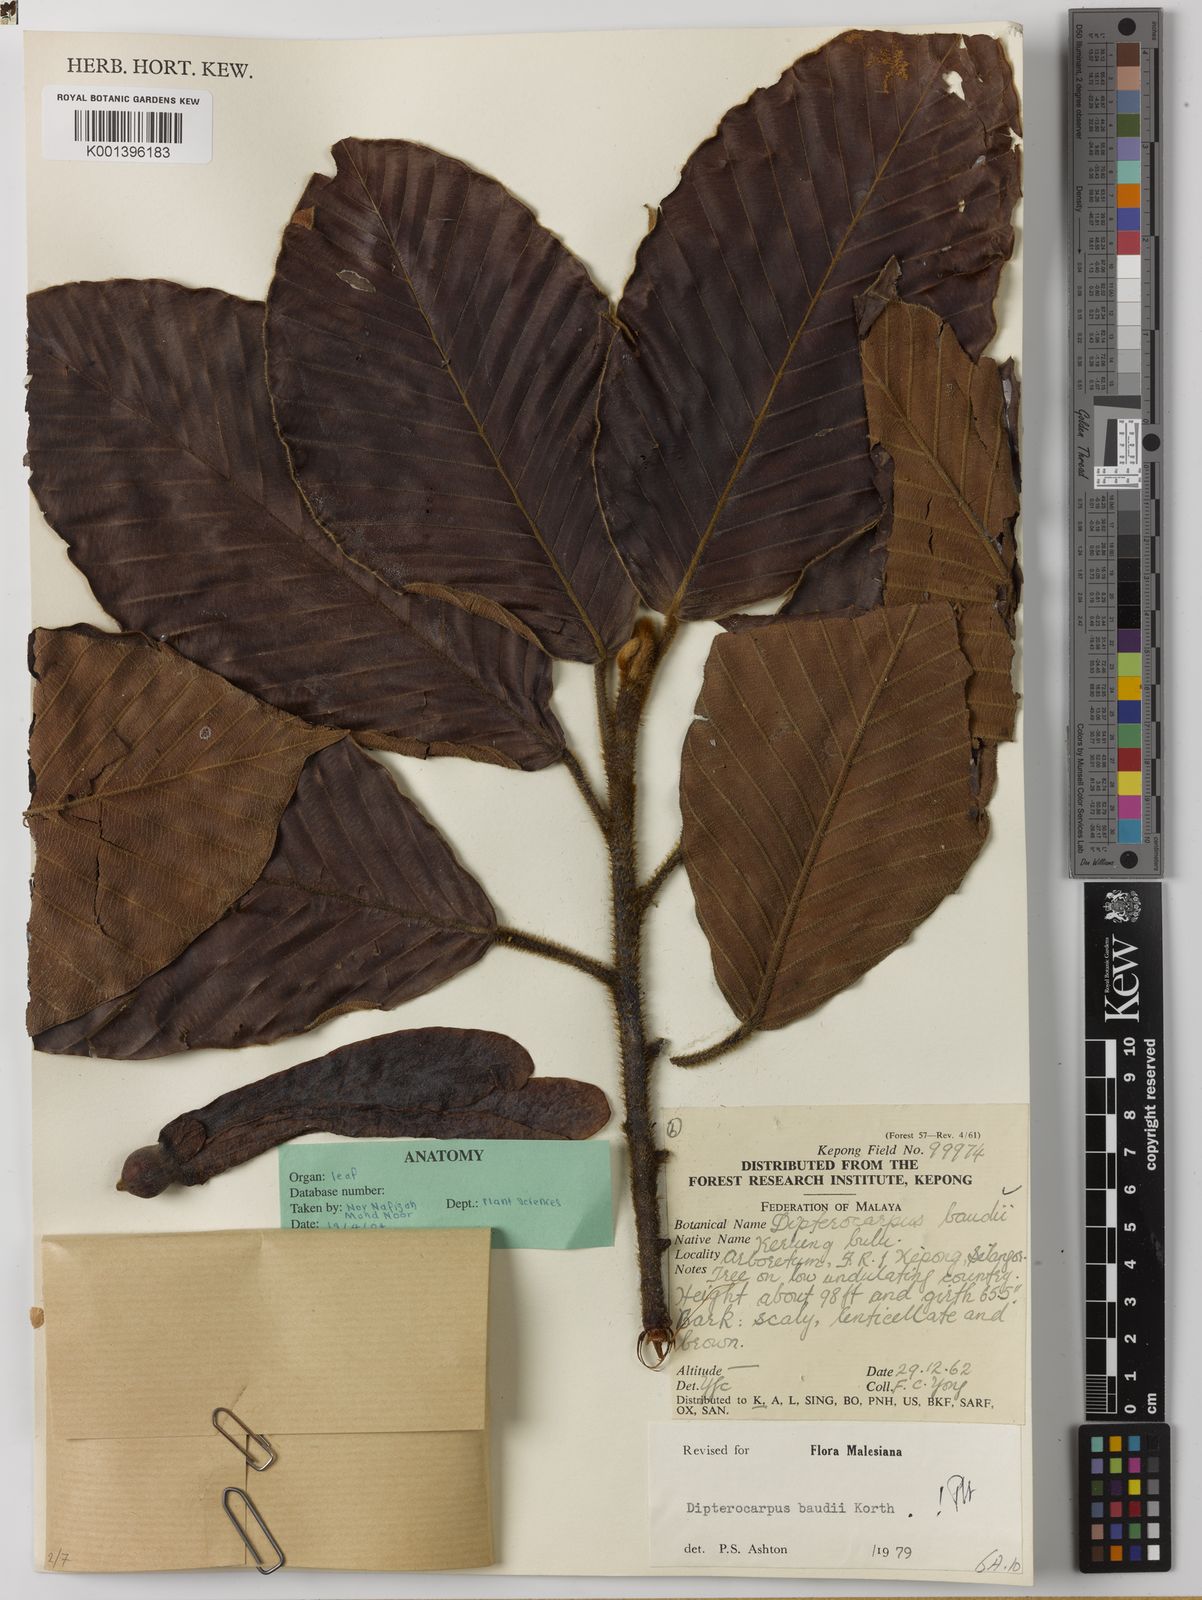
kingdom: Plantae
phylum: Tracheophyta
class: Magnoliopsida
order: Malvales
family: Dipterocarpaceae
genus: Dipterocarpus
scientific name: Dipterocarpus baudii
